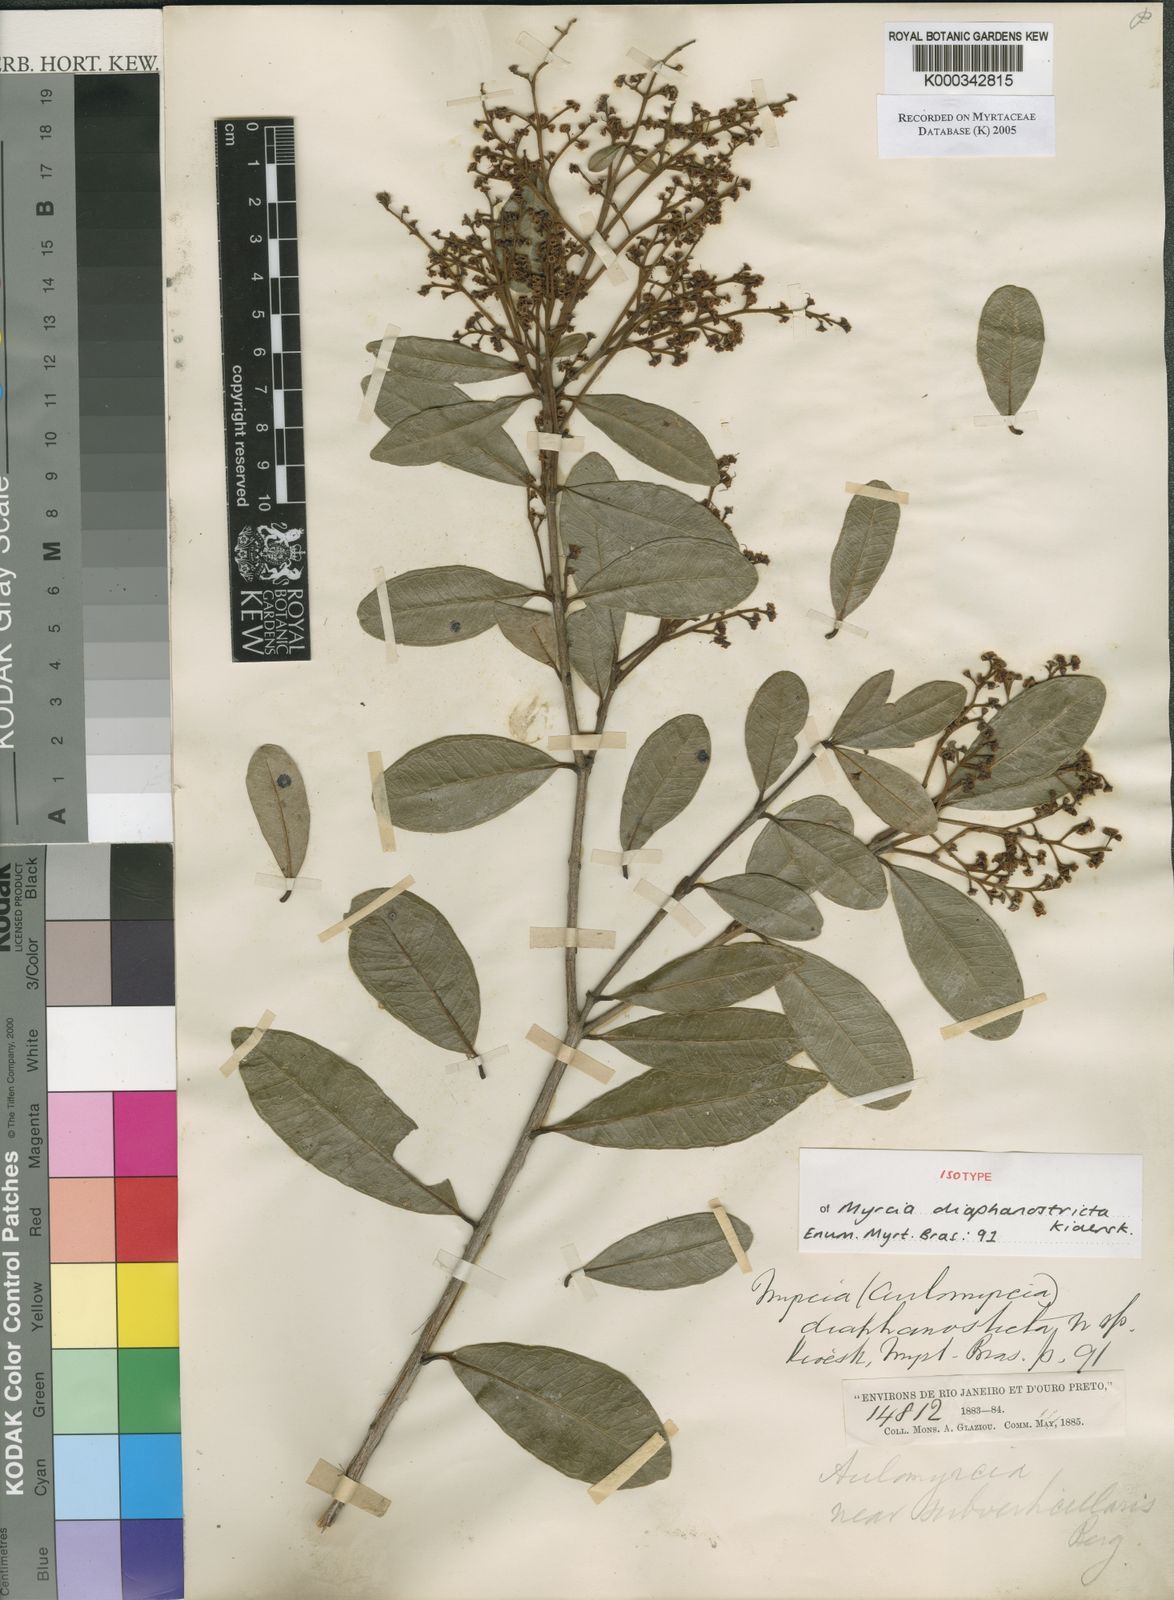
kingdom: Plantae
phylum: Tracheophyta
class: Magnoliopsida
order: Myrtales
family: Myrtaceae
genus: Myrcia
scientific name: Myrcia guianensis
